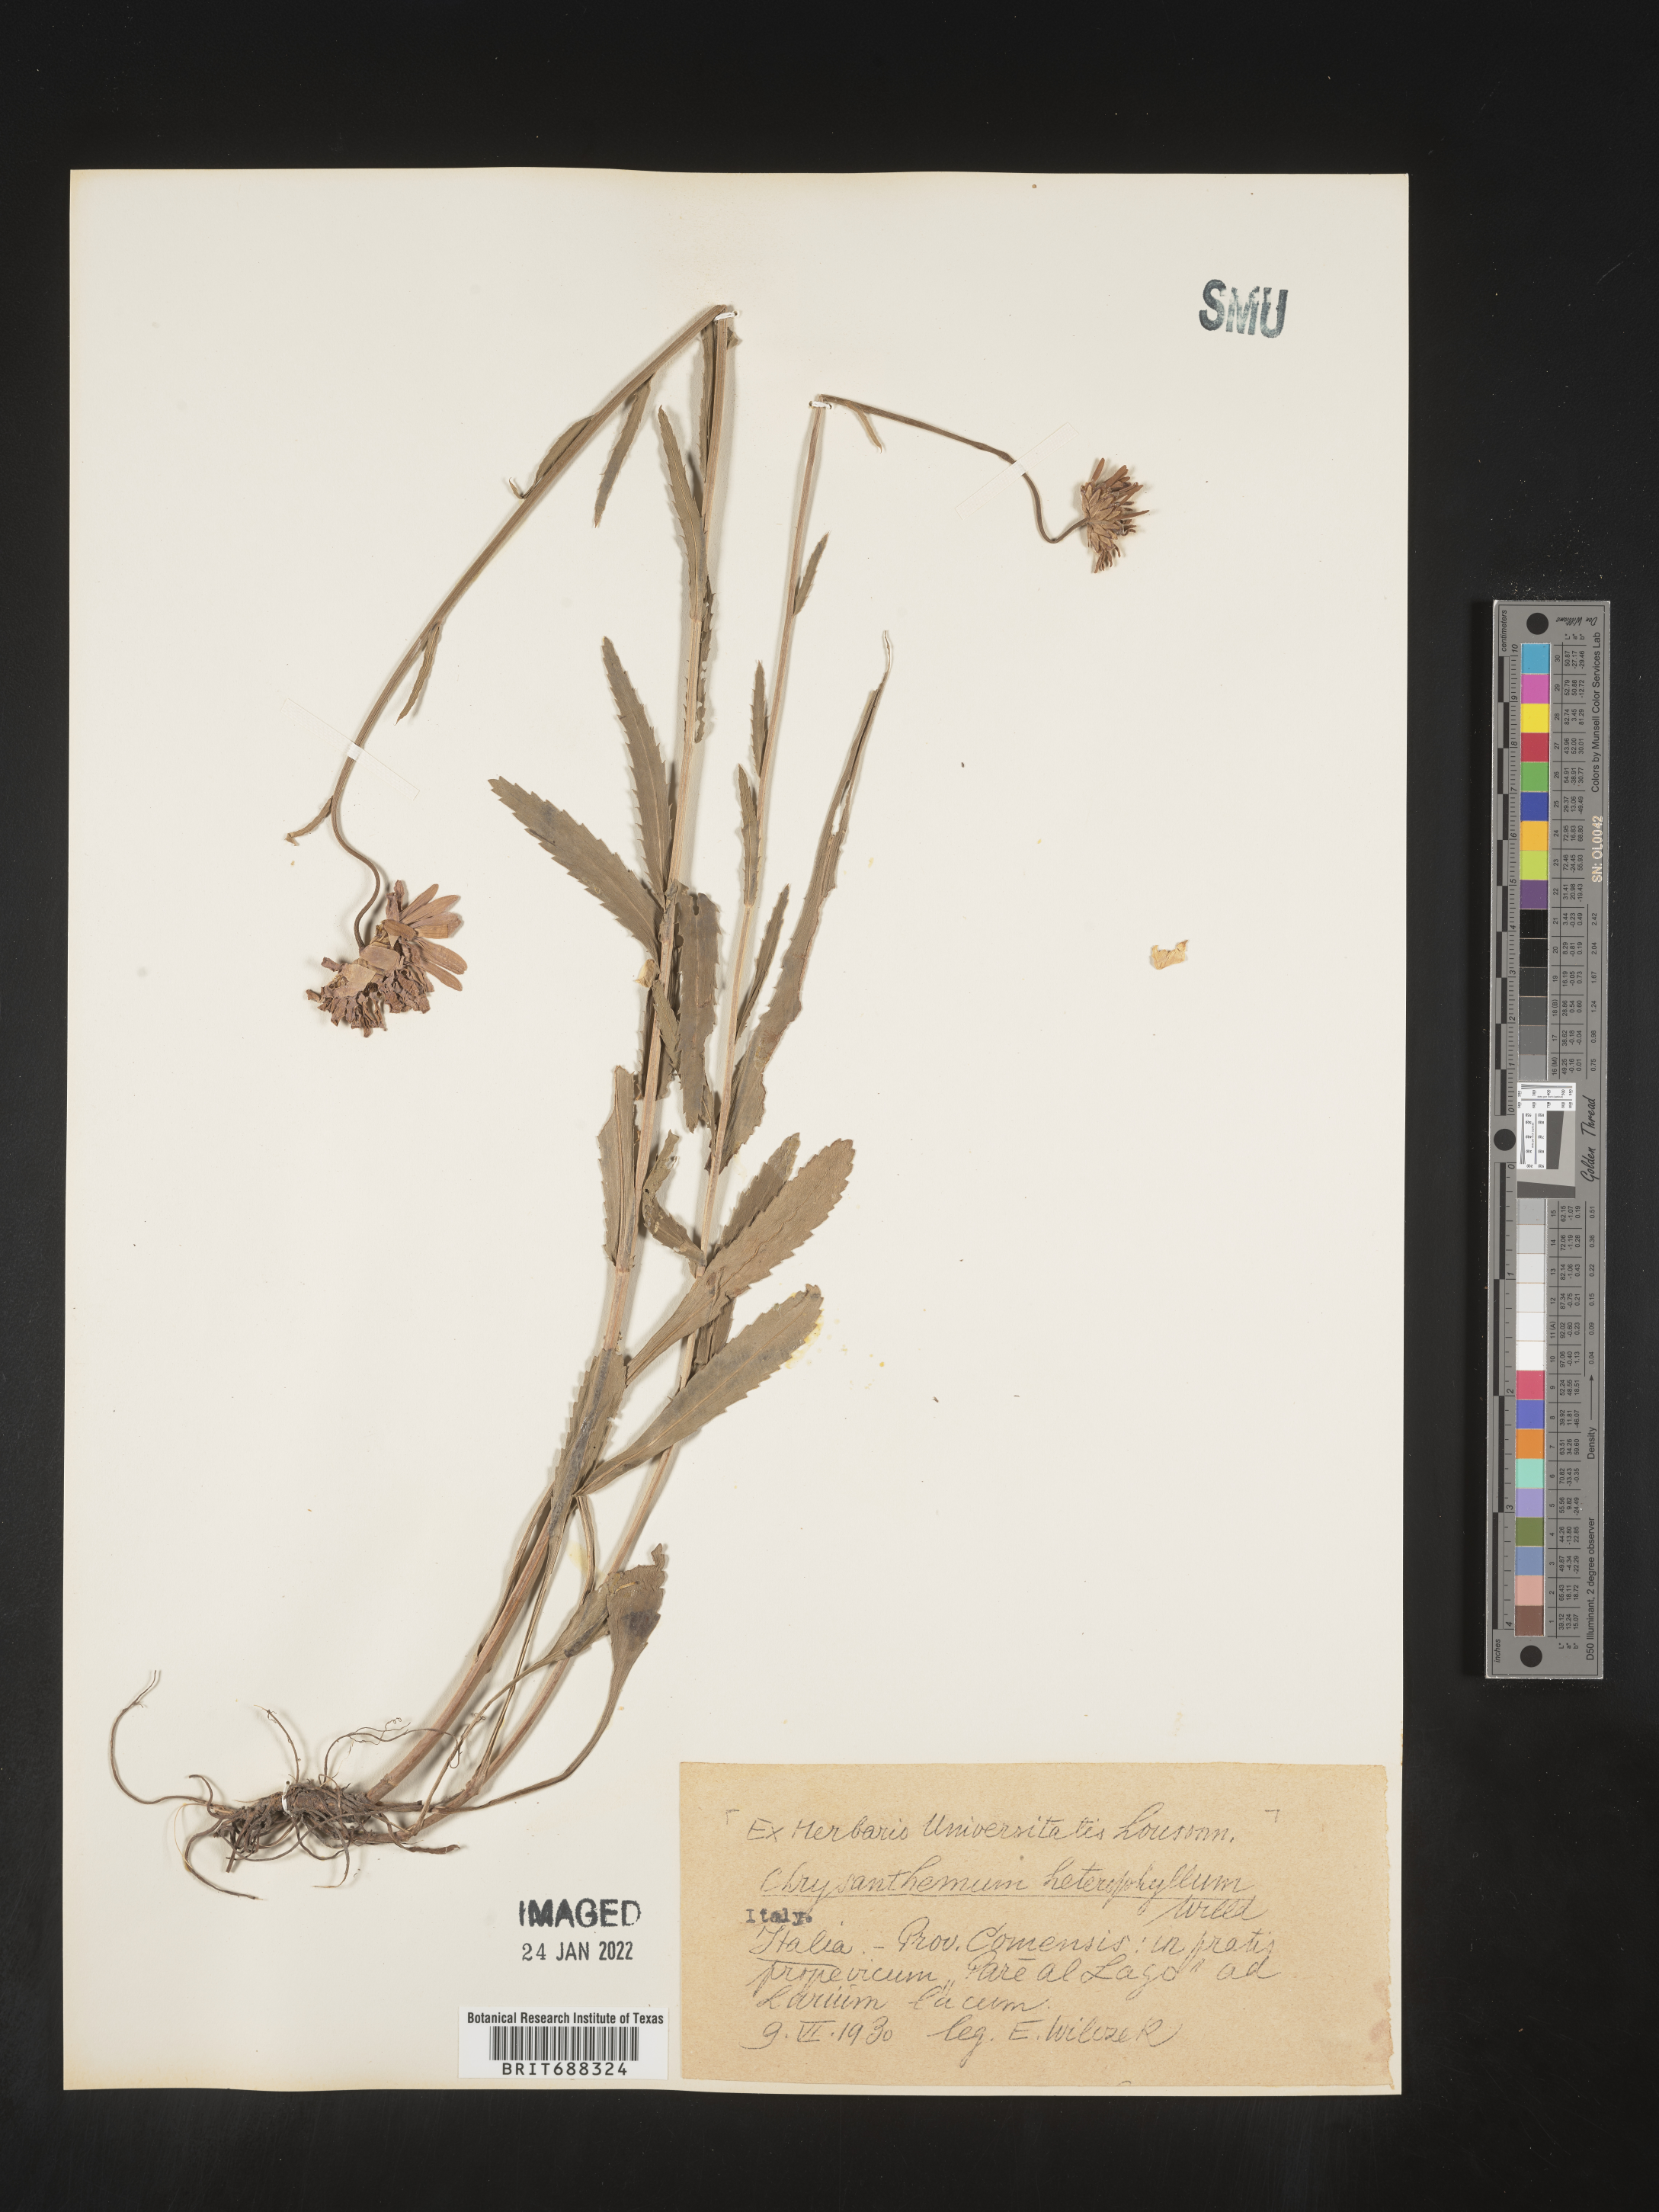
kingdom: Plantae
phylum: Tracheophyta
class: Magnoliopsida
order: Asterales
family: Asteraceae
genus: Chrysanthemum
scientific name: Chrysanthemum
